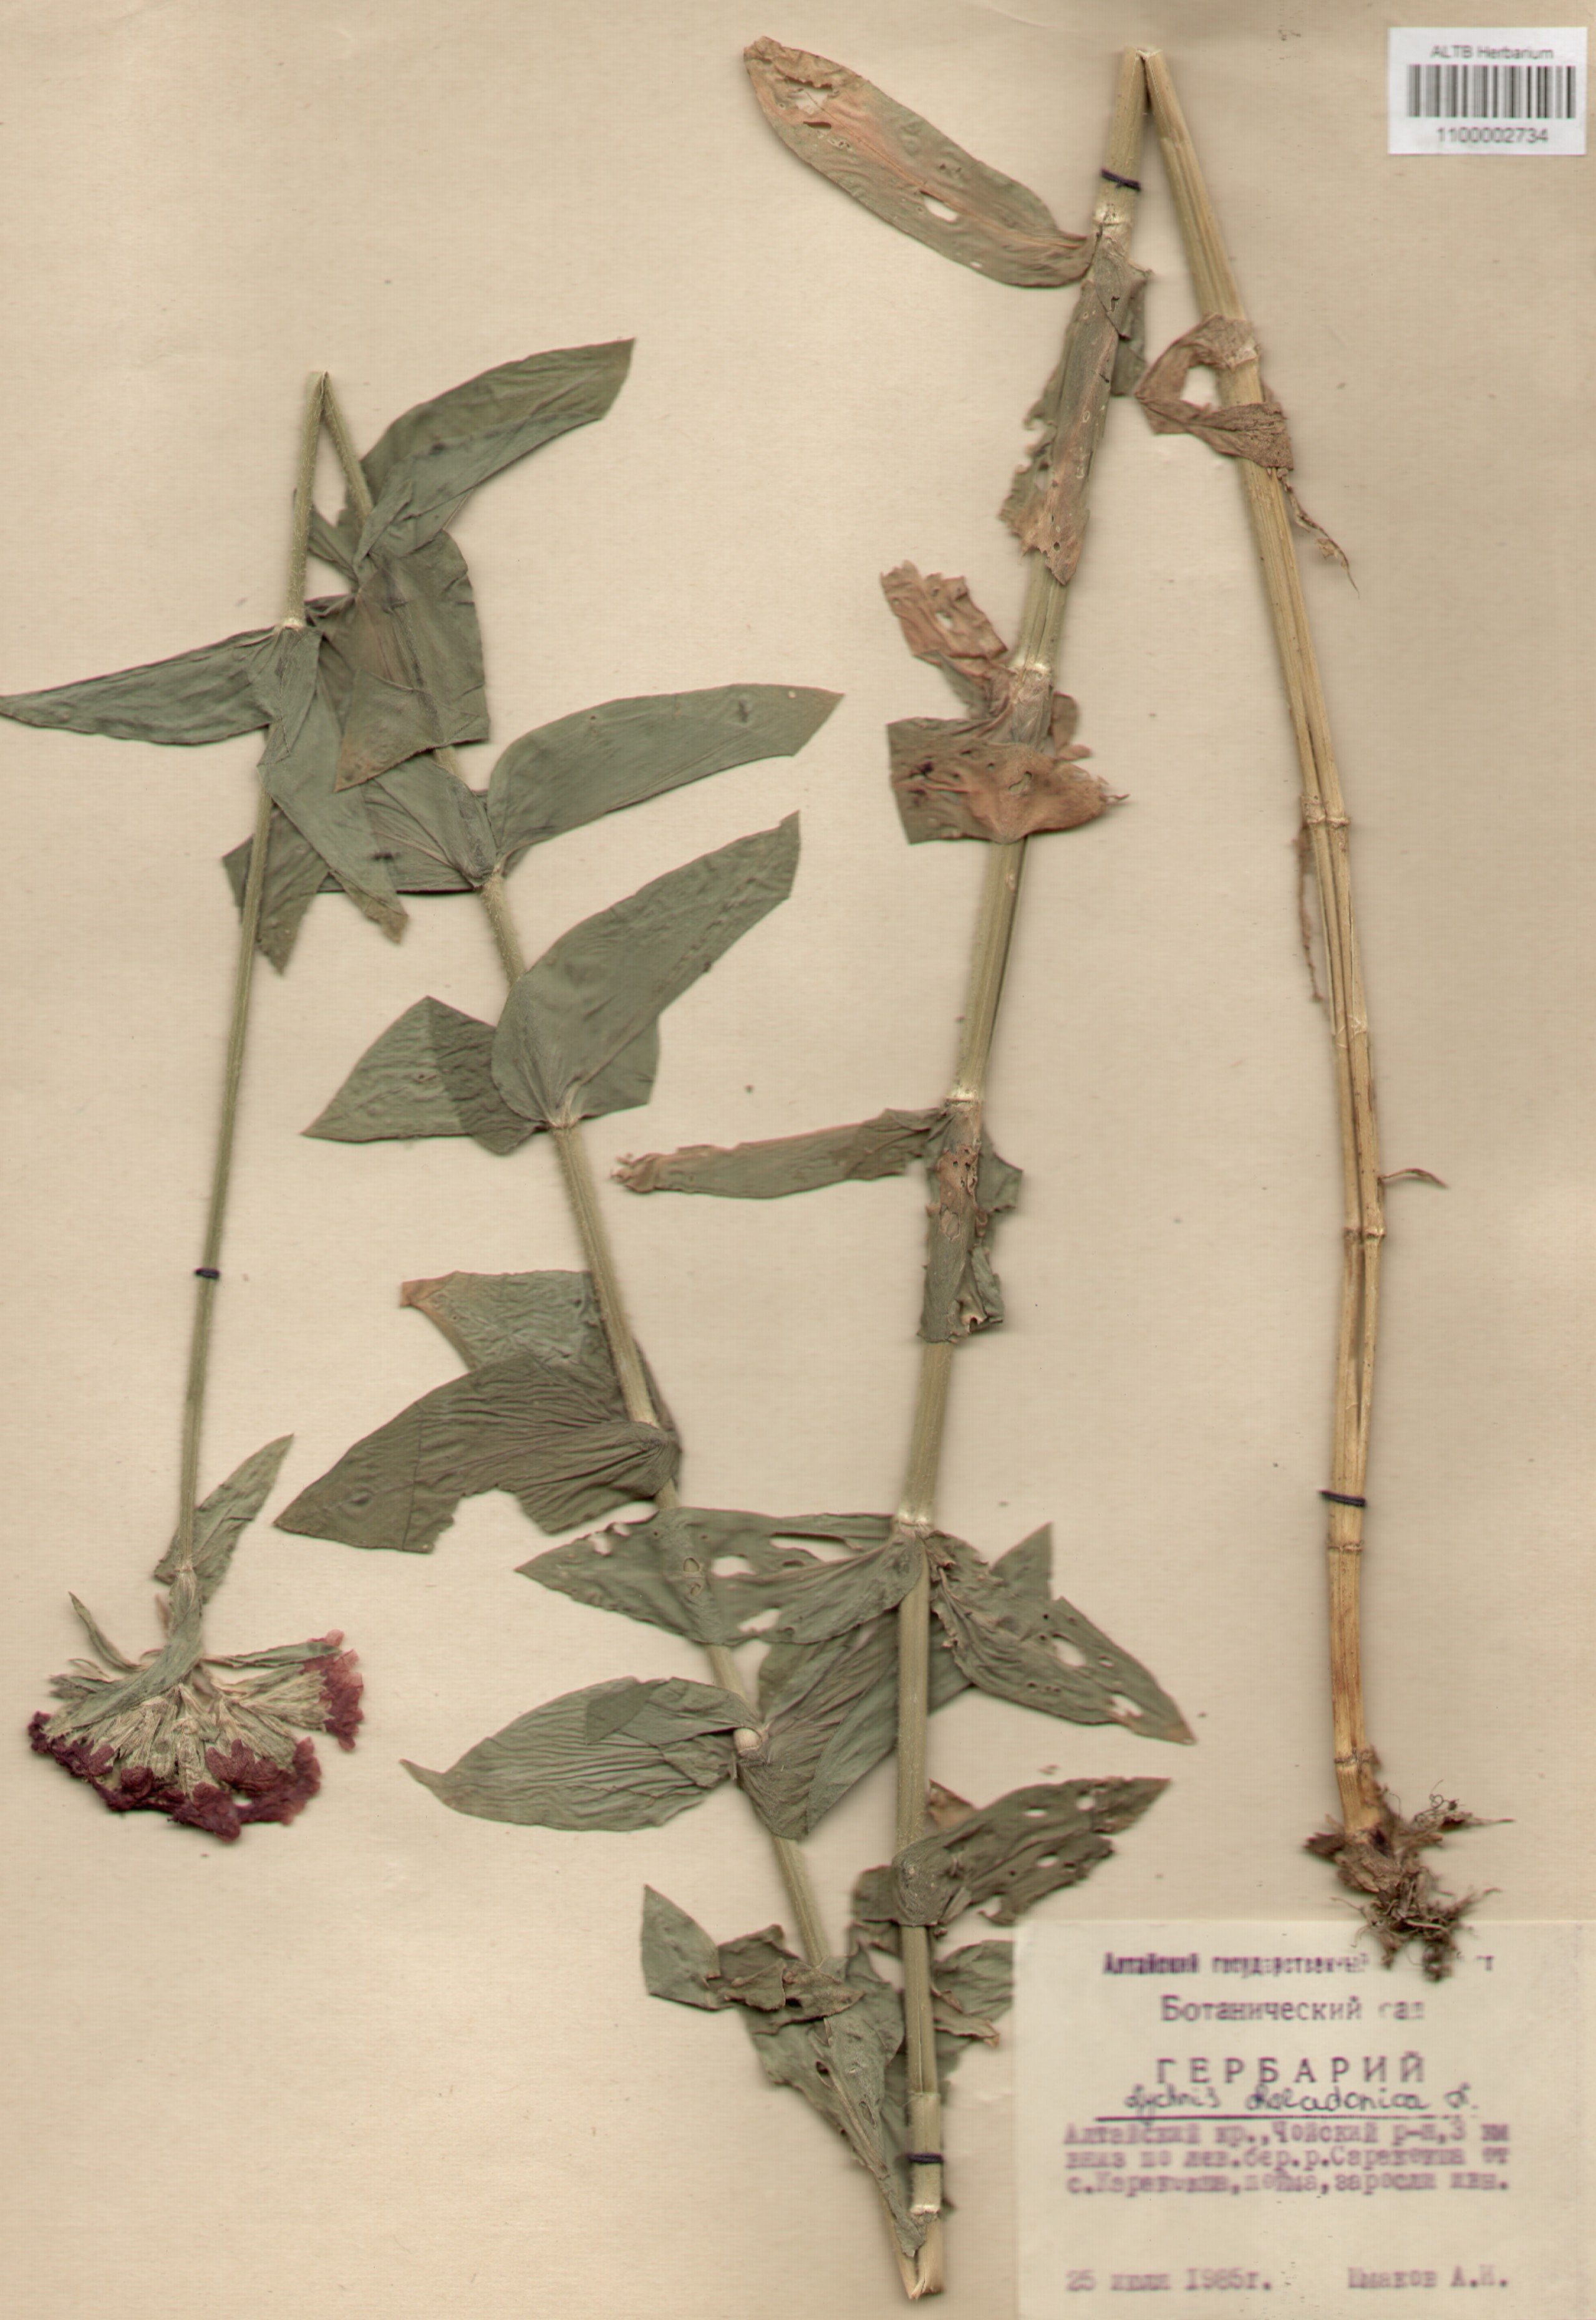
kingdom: Plantae
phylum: Tracheophyta
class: Magnoliopsida
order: Caryophyllales
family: Caryophyllaceae
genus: Silene
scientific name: Silene chalcedonica
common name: Maltese-cross
